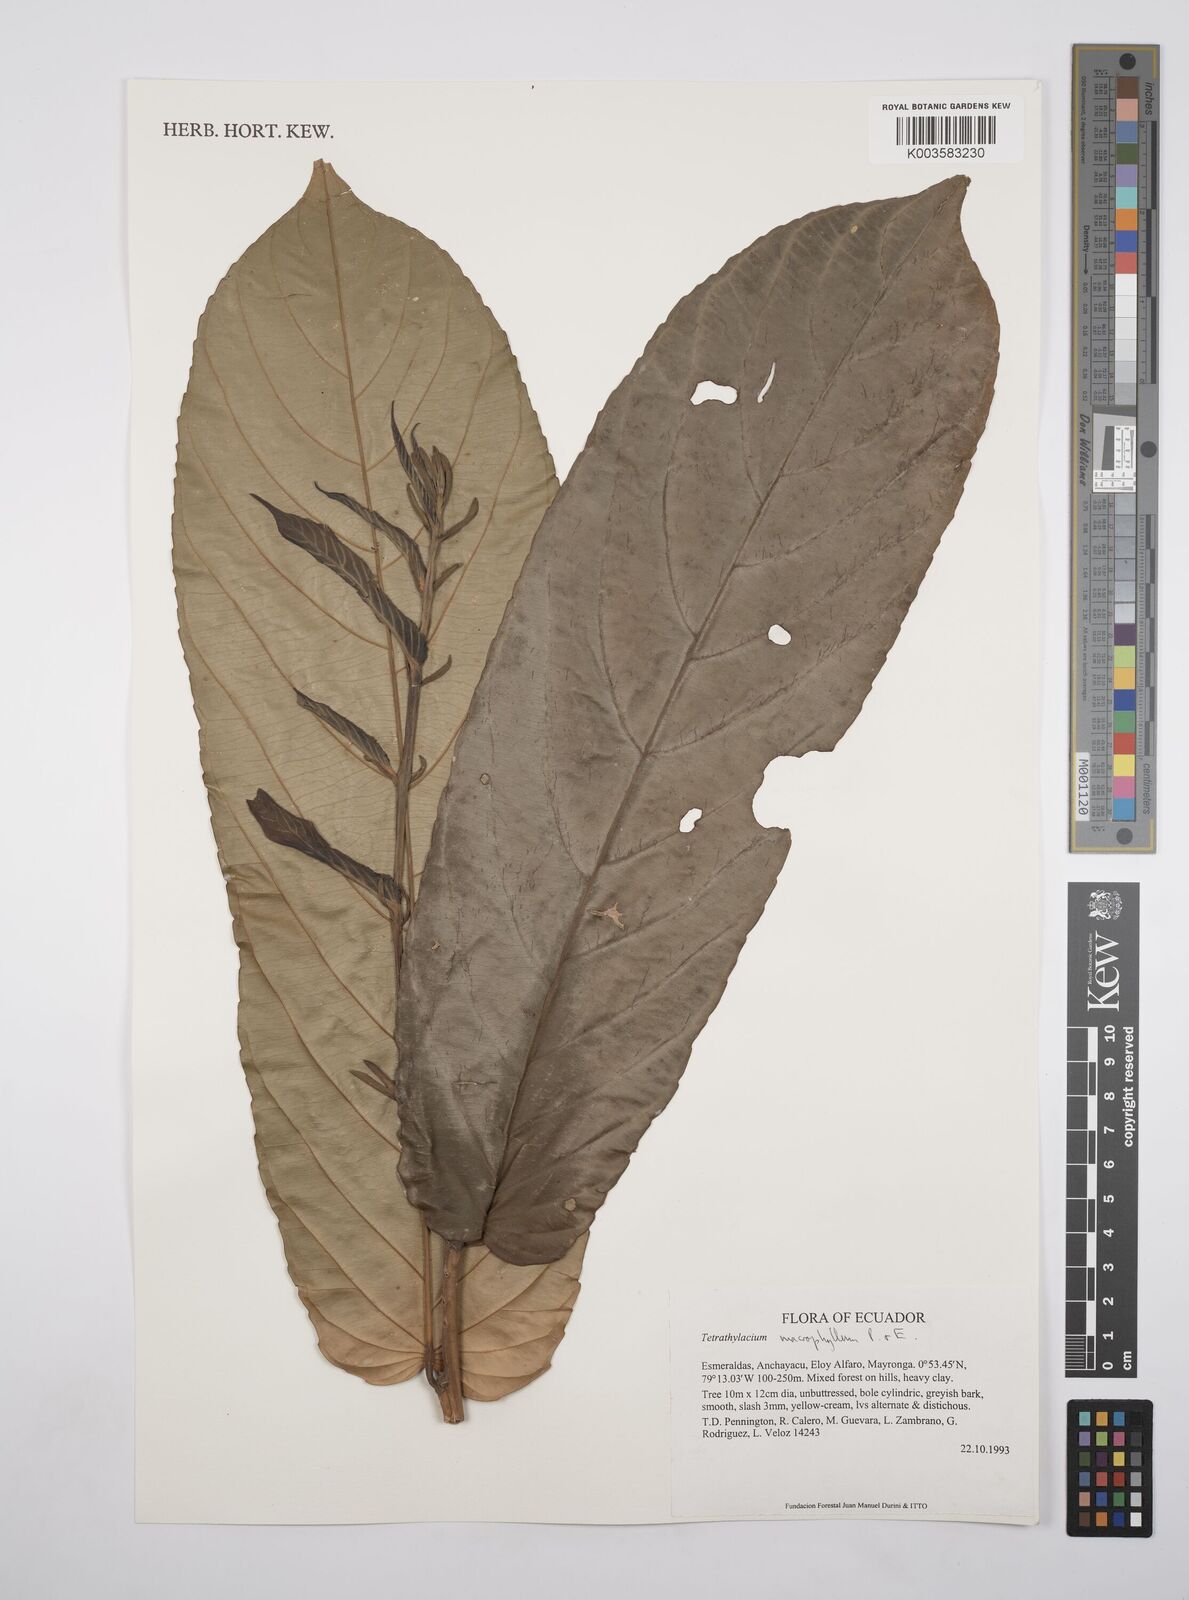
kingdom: Plantae
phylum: Tracheophyta
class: Magnoliopsida
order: Malpighiales
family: Salicaceae
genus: Tetrathylacium
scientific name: Tetrathylacium macrophyllum
